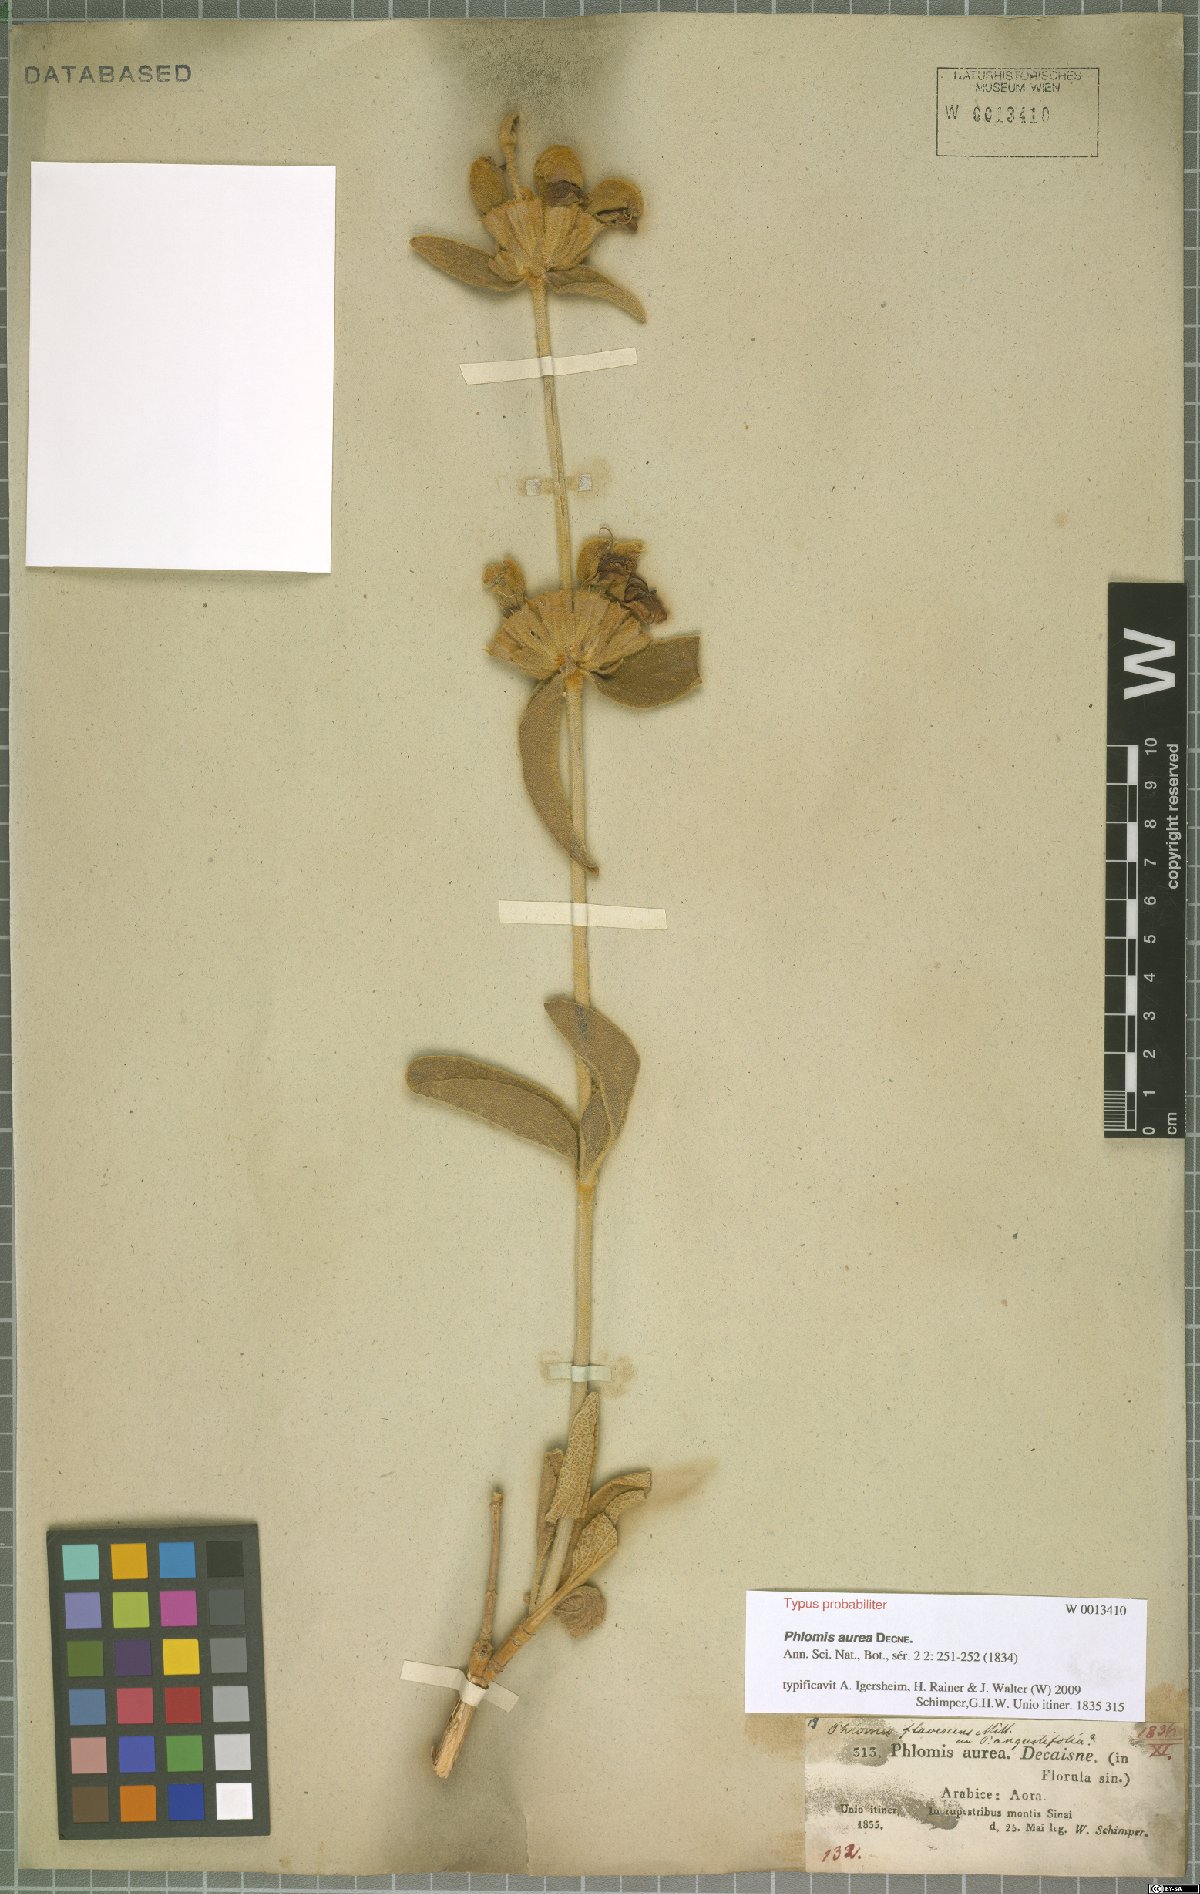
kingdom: Plantae
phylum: Tracheophyta
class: Magnoliopsida
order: Lamiales
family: Lamiaceae
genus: Phlomis
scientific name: Phlomis aurea
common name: Sinai jerusalem sage
